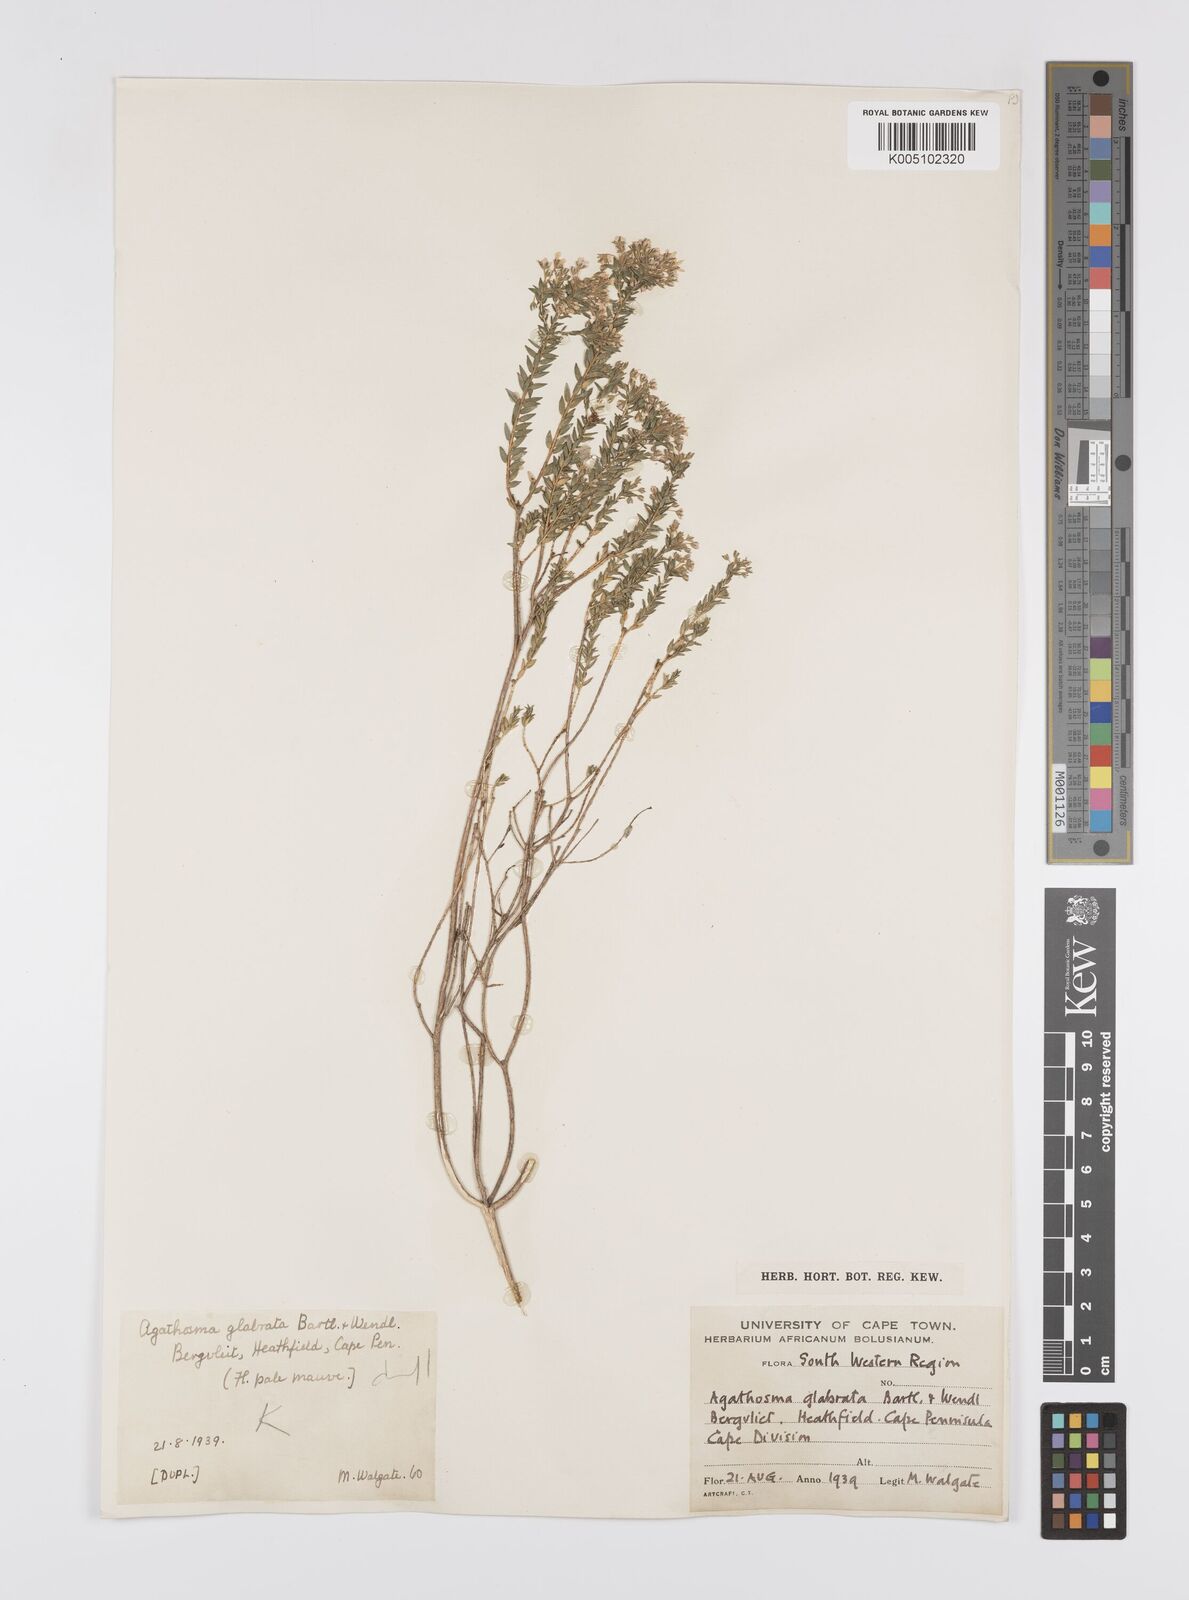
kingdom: Plantae
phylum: Tracheophyta
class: Magnoliopsida
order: Sapindales
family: Rutaceae
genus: Agathosma
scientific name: Agathosma
